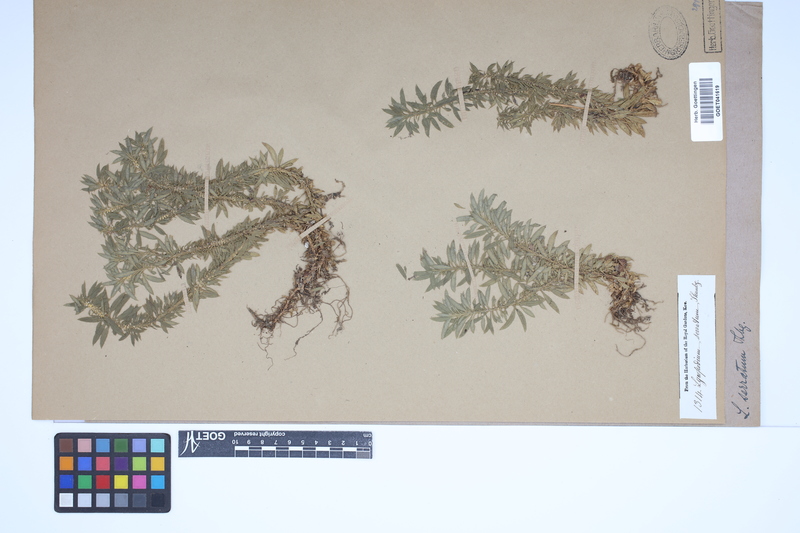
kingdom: Plantae
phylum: Tracheophyta
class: Lycopodiopsida
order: Lycopodiales
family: Lycopodiaceae
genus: Huperzia
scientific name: Huperzia serrata
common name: Toothed club-moss
